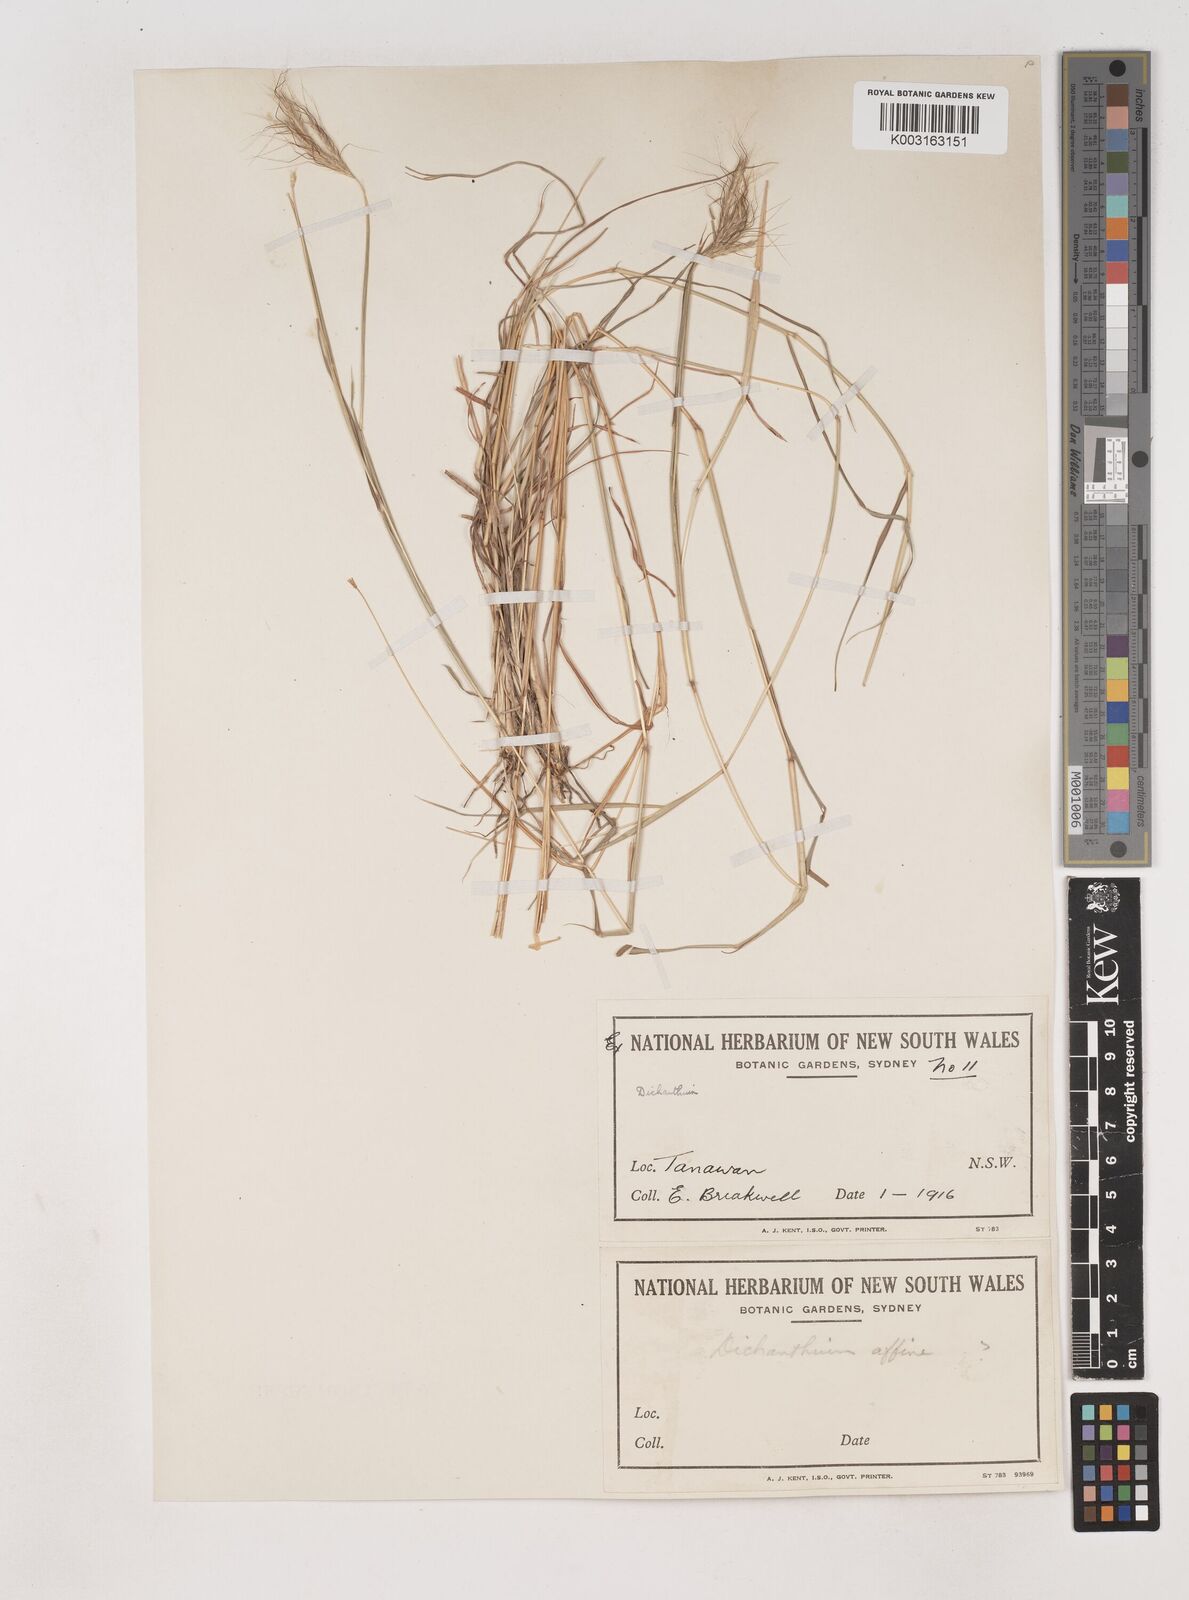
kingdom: Plantae
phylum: Tracheophyta
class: Liliopsida
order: Poales
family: Poaceae
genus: Dichanthium
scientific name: Dichanthium sericeum
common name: Silky bluestem
